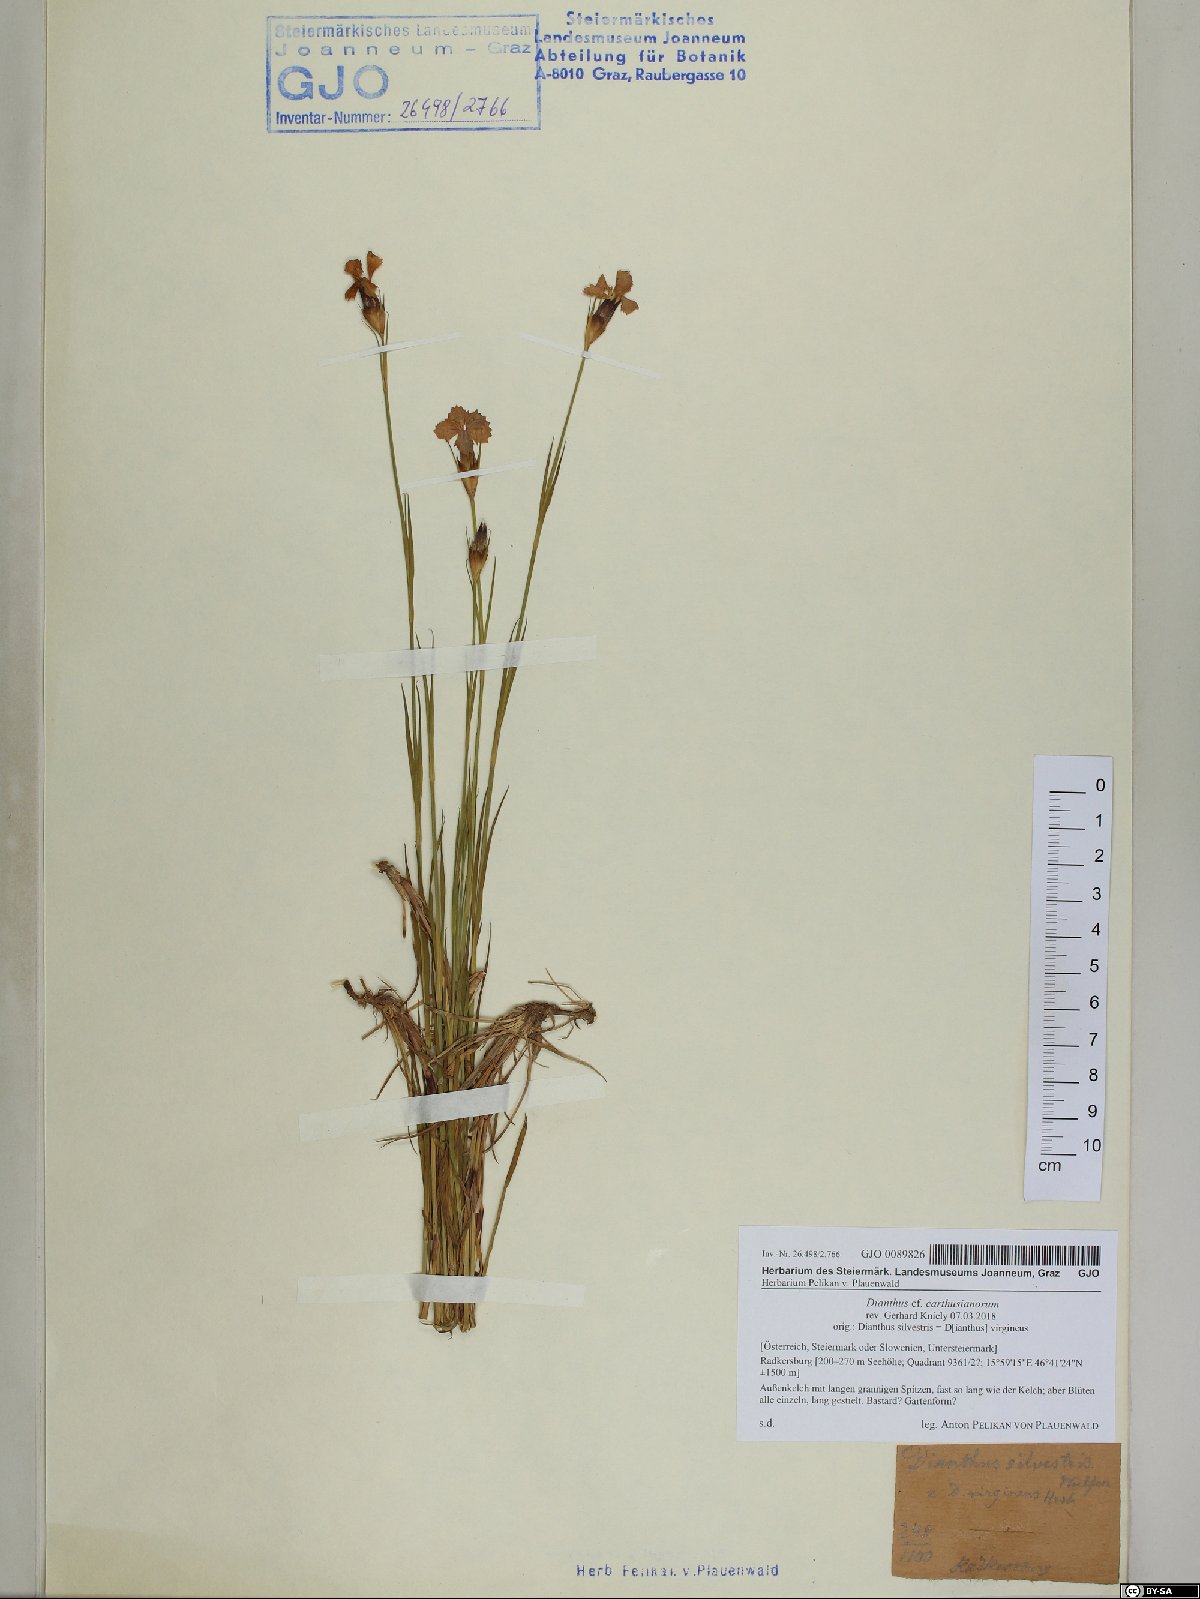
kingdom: Plantae
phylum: Tracheophyta
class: Magnoliopsida
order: Caryophyllales
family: Caryophyllaceae
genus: Dianthus
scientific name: Dianthus carthusianorum
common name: Carthusian pink
